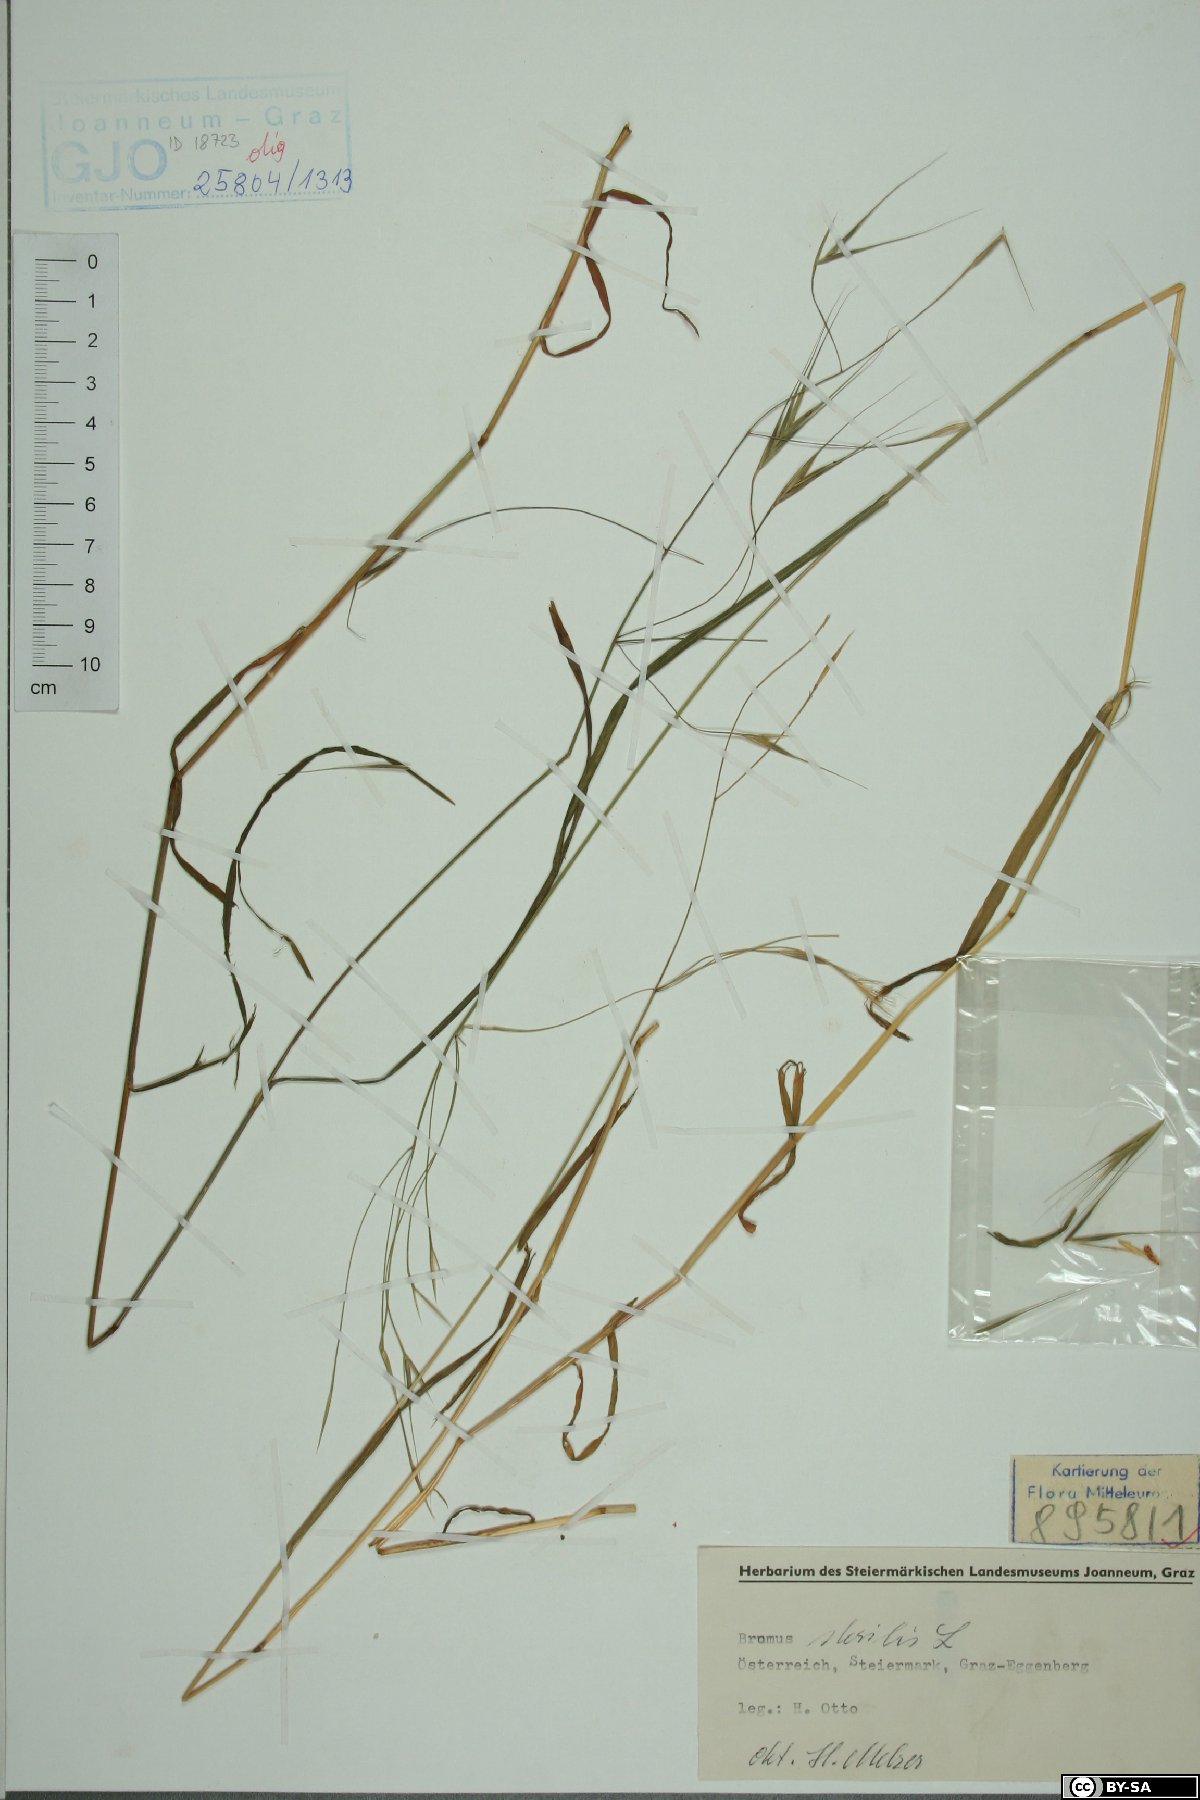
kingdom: Plantae
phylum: Tracheophyta
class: Liliopsida
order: Poales
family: Poaceae
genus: Bromus
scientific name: Bromus sterilis
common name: Poverty brome
